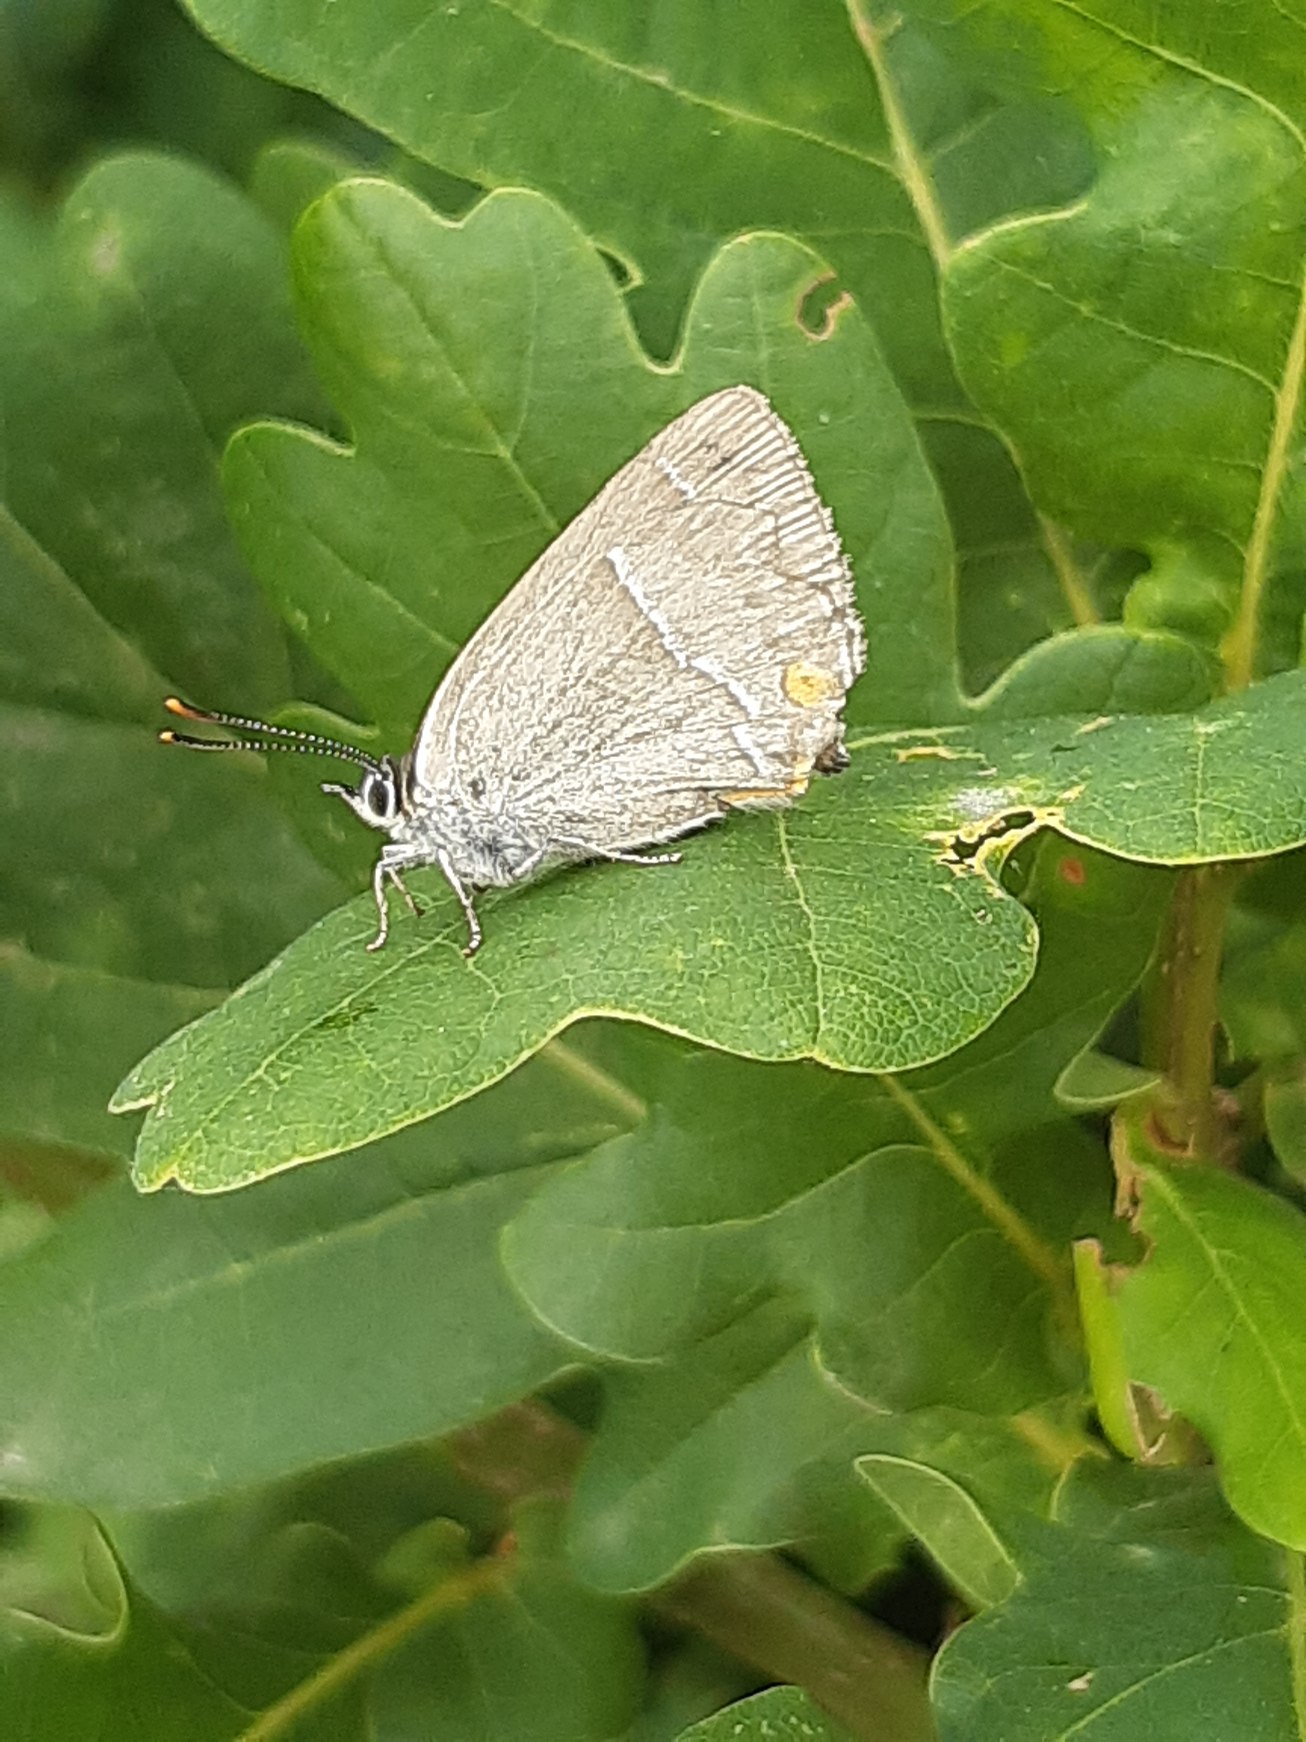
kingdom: Animalia
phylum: Arthropoda
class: Insecta
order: Lepidoptera
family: Lycaenidae
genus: Quercusia
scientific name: Quercusia quercus
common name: Blåhale
